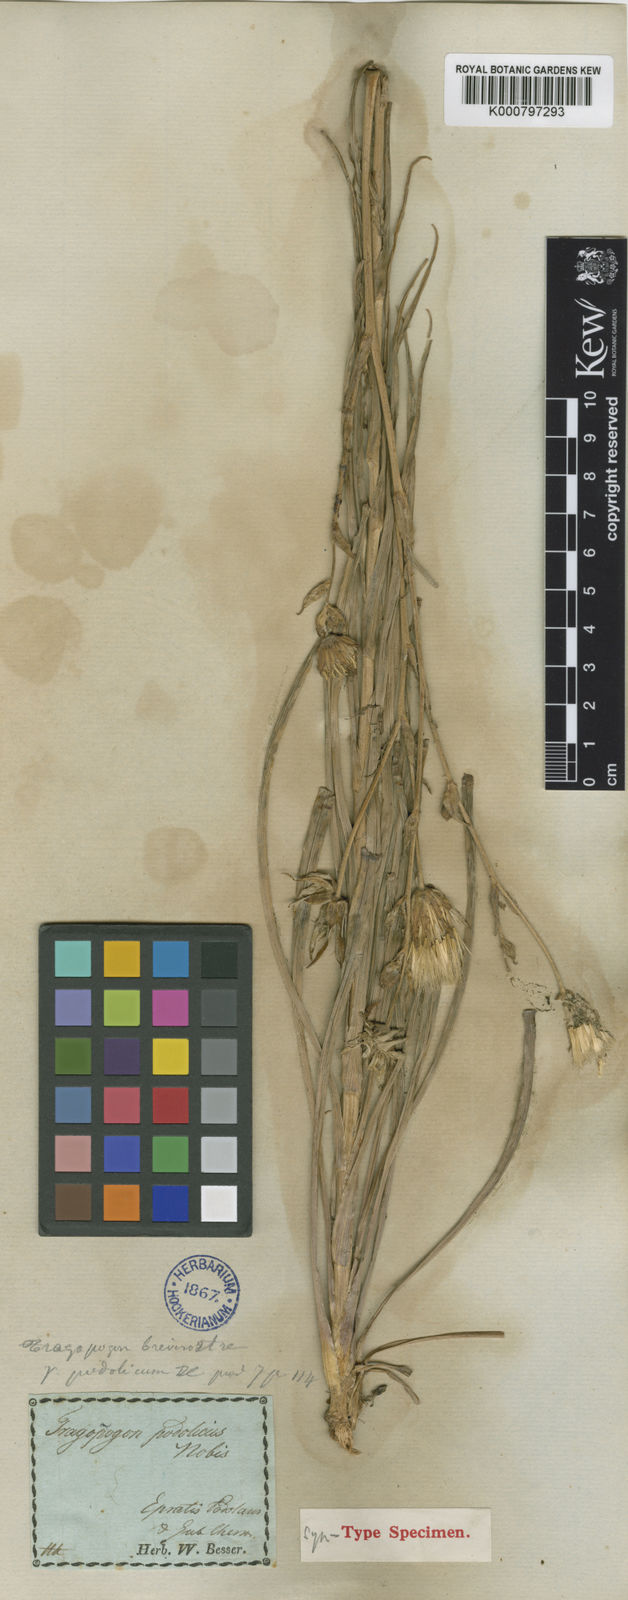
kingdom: Plantae
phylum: Tracheophyta
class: Magnoliopsida
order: Asterales
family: Asteraceae
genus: Tragopogon
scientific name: Tragopogon brevirostris
